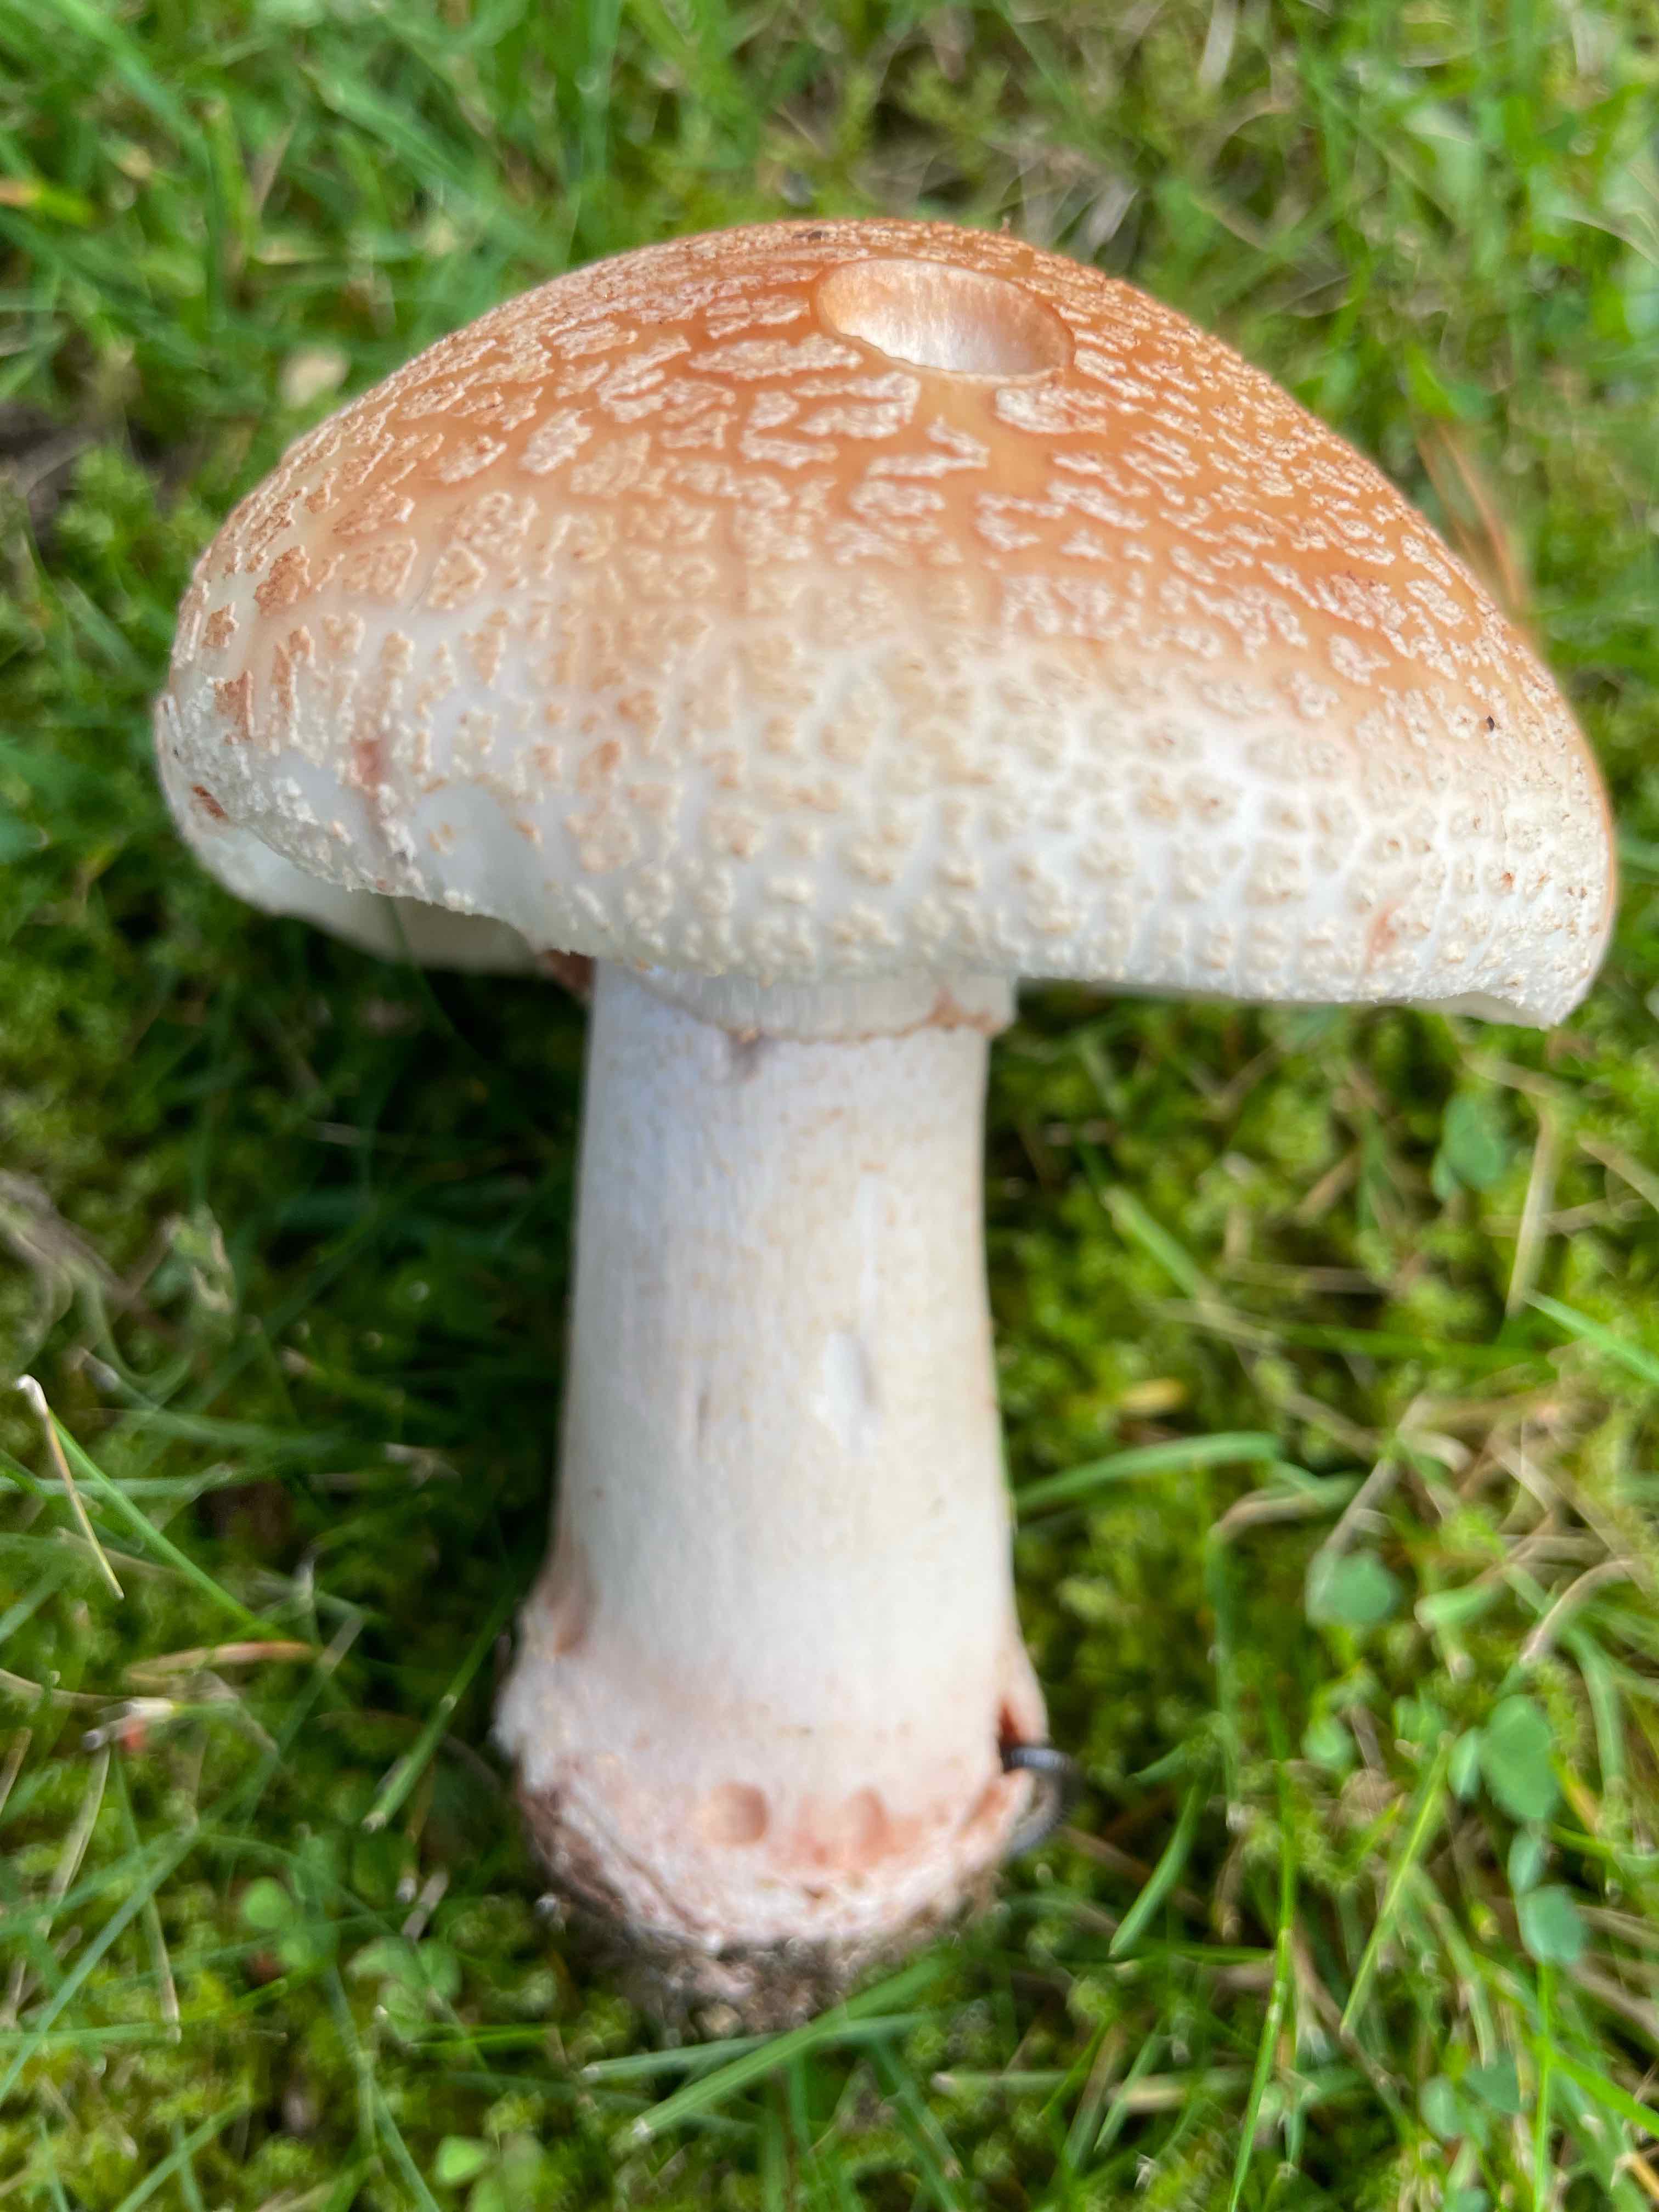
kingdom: Fungi
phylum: Basidiomycota
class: Agaricomycetes
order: Agaricales
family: Amanitaceae
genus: Amanita
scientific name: Amanita rubescens
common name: rødmende fluesvamp
